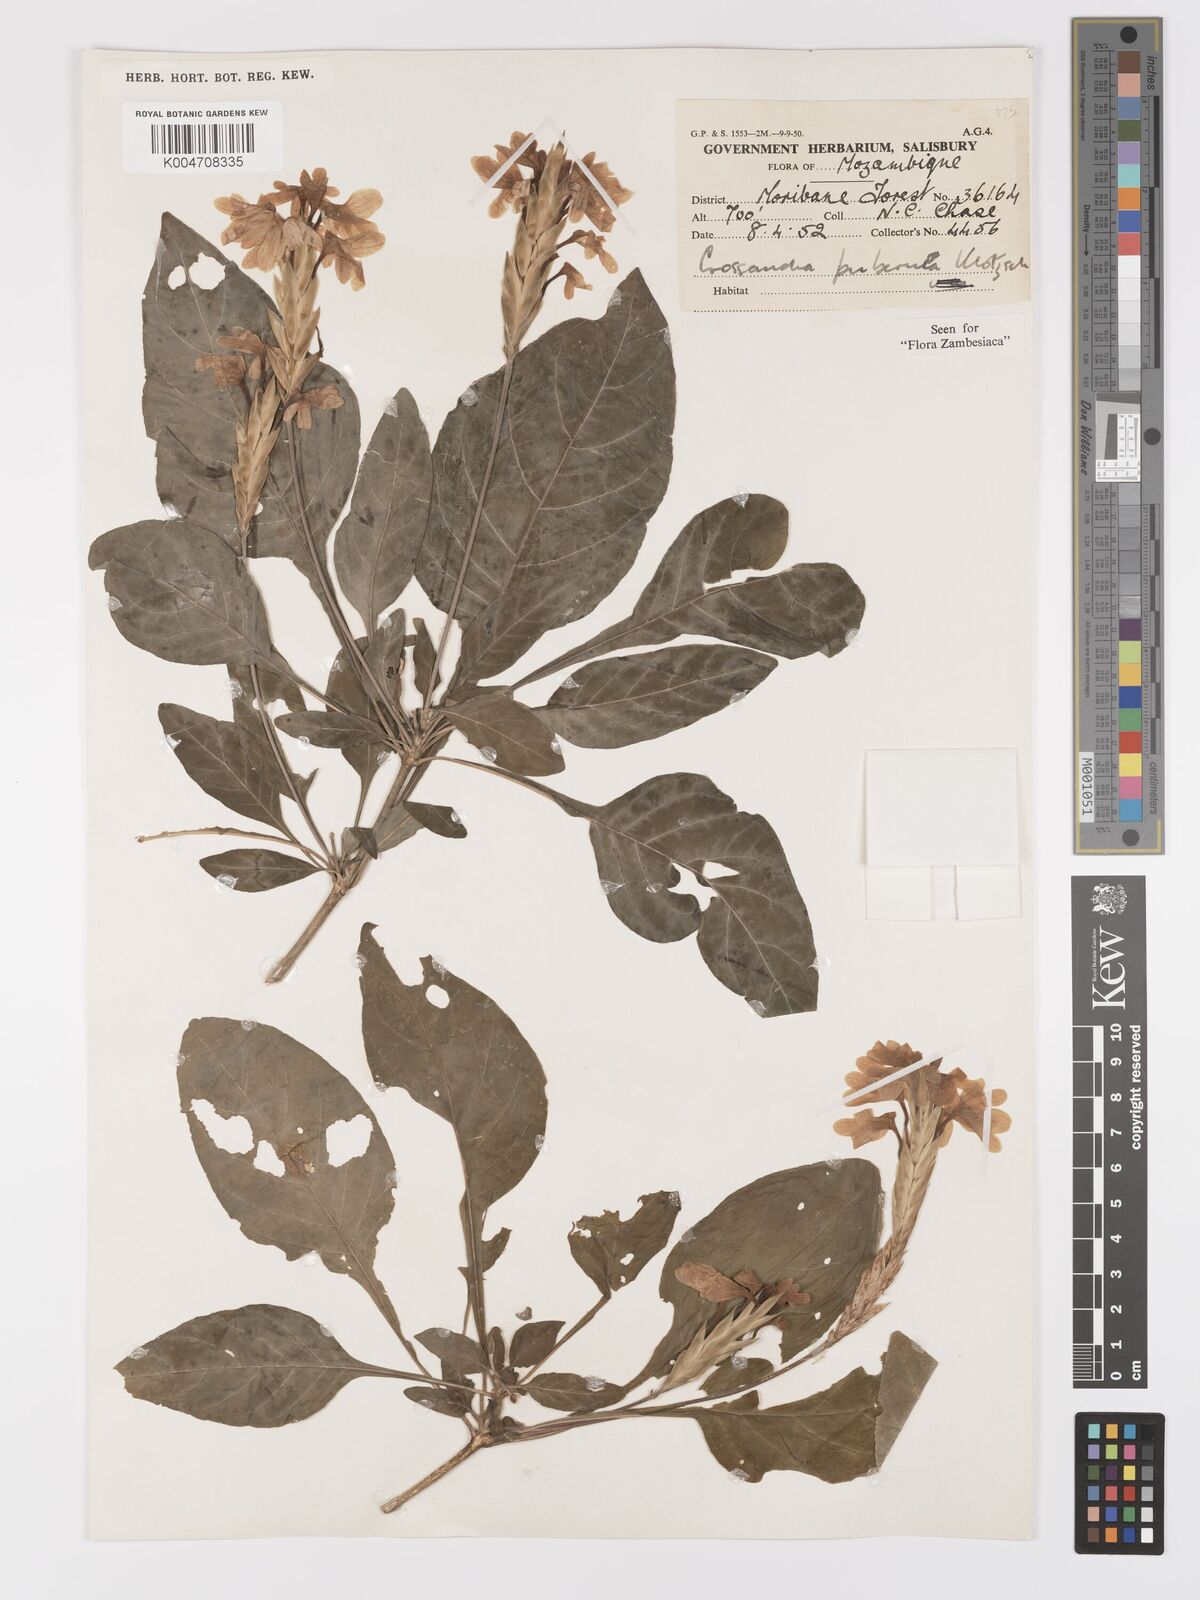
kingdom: Plantae
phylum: Tracheophyta
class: Magnoliopsida
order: Lamiales
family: Acanthaceae
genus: Crossandra
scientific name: Crossandra puberula
